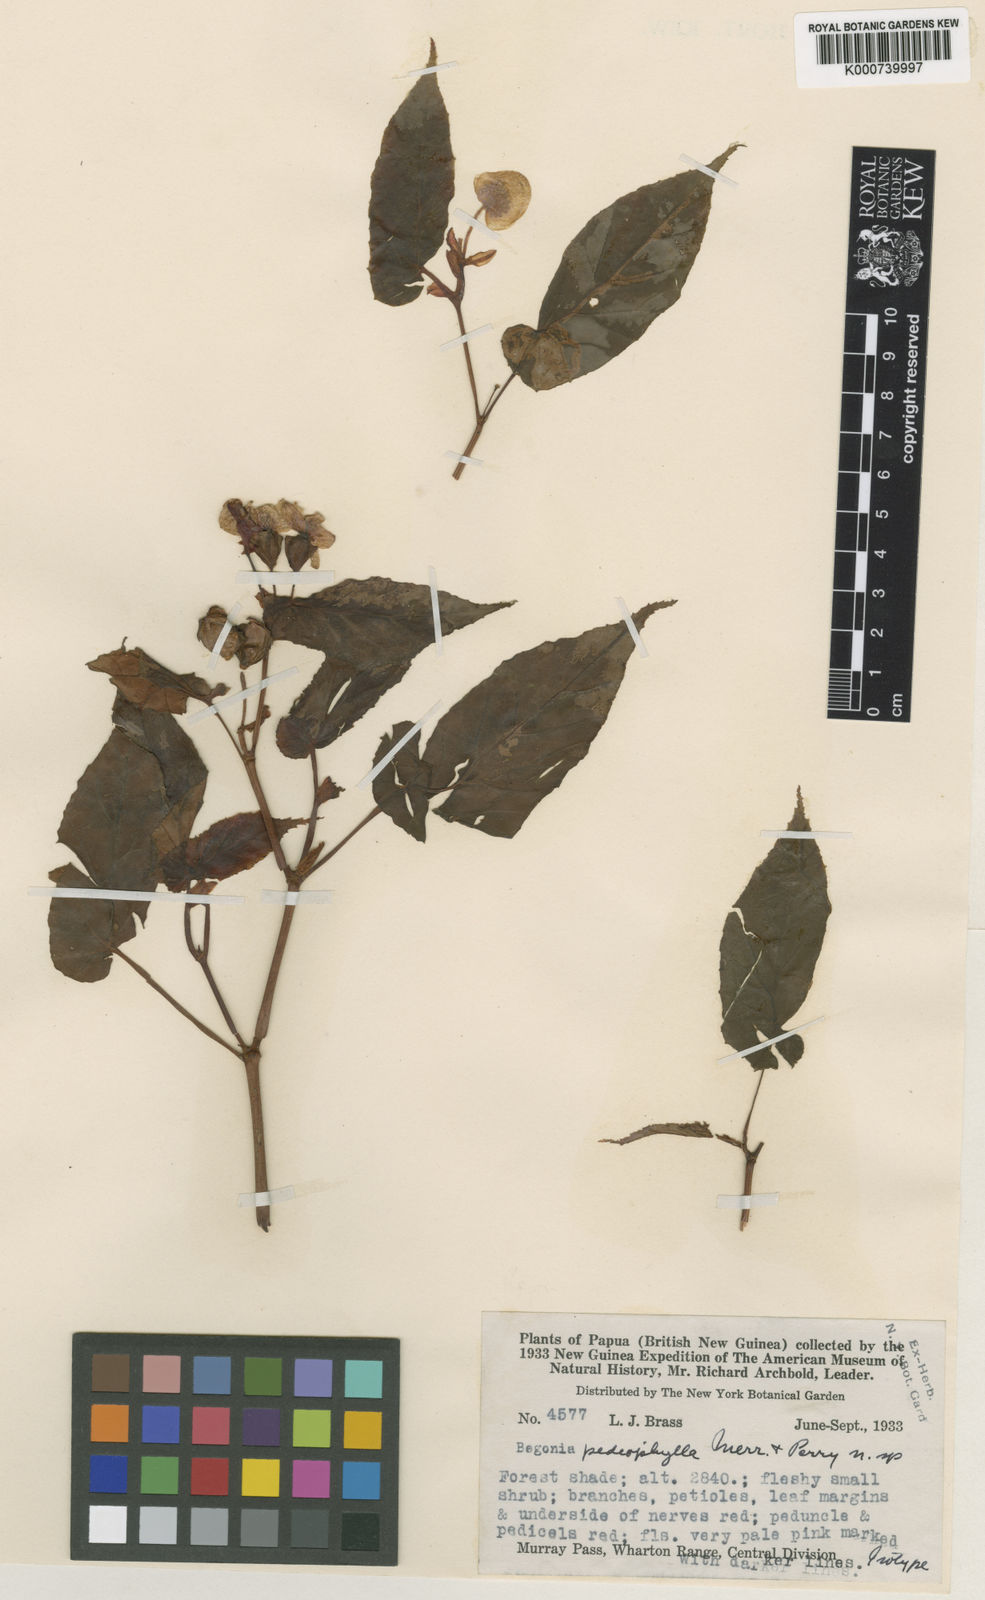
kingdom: Plantae
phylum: Tracheophyta
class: Magnoliopsida
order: Cucurbitales
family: Begoniaceae
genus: Begonia
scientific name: Begonia pediophylla
